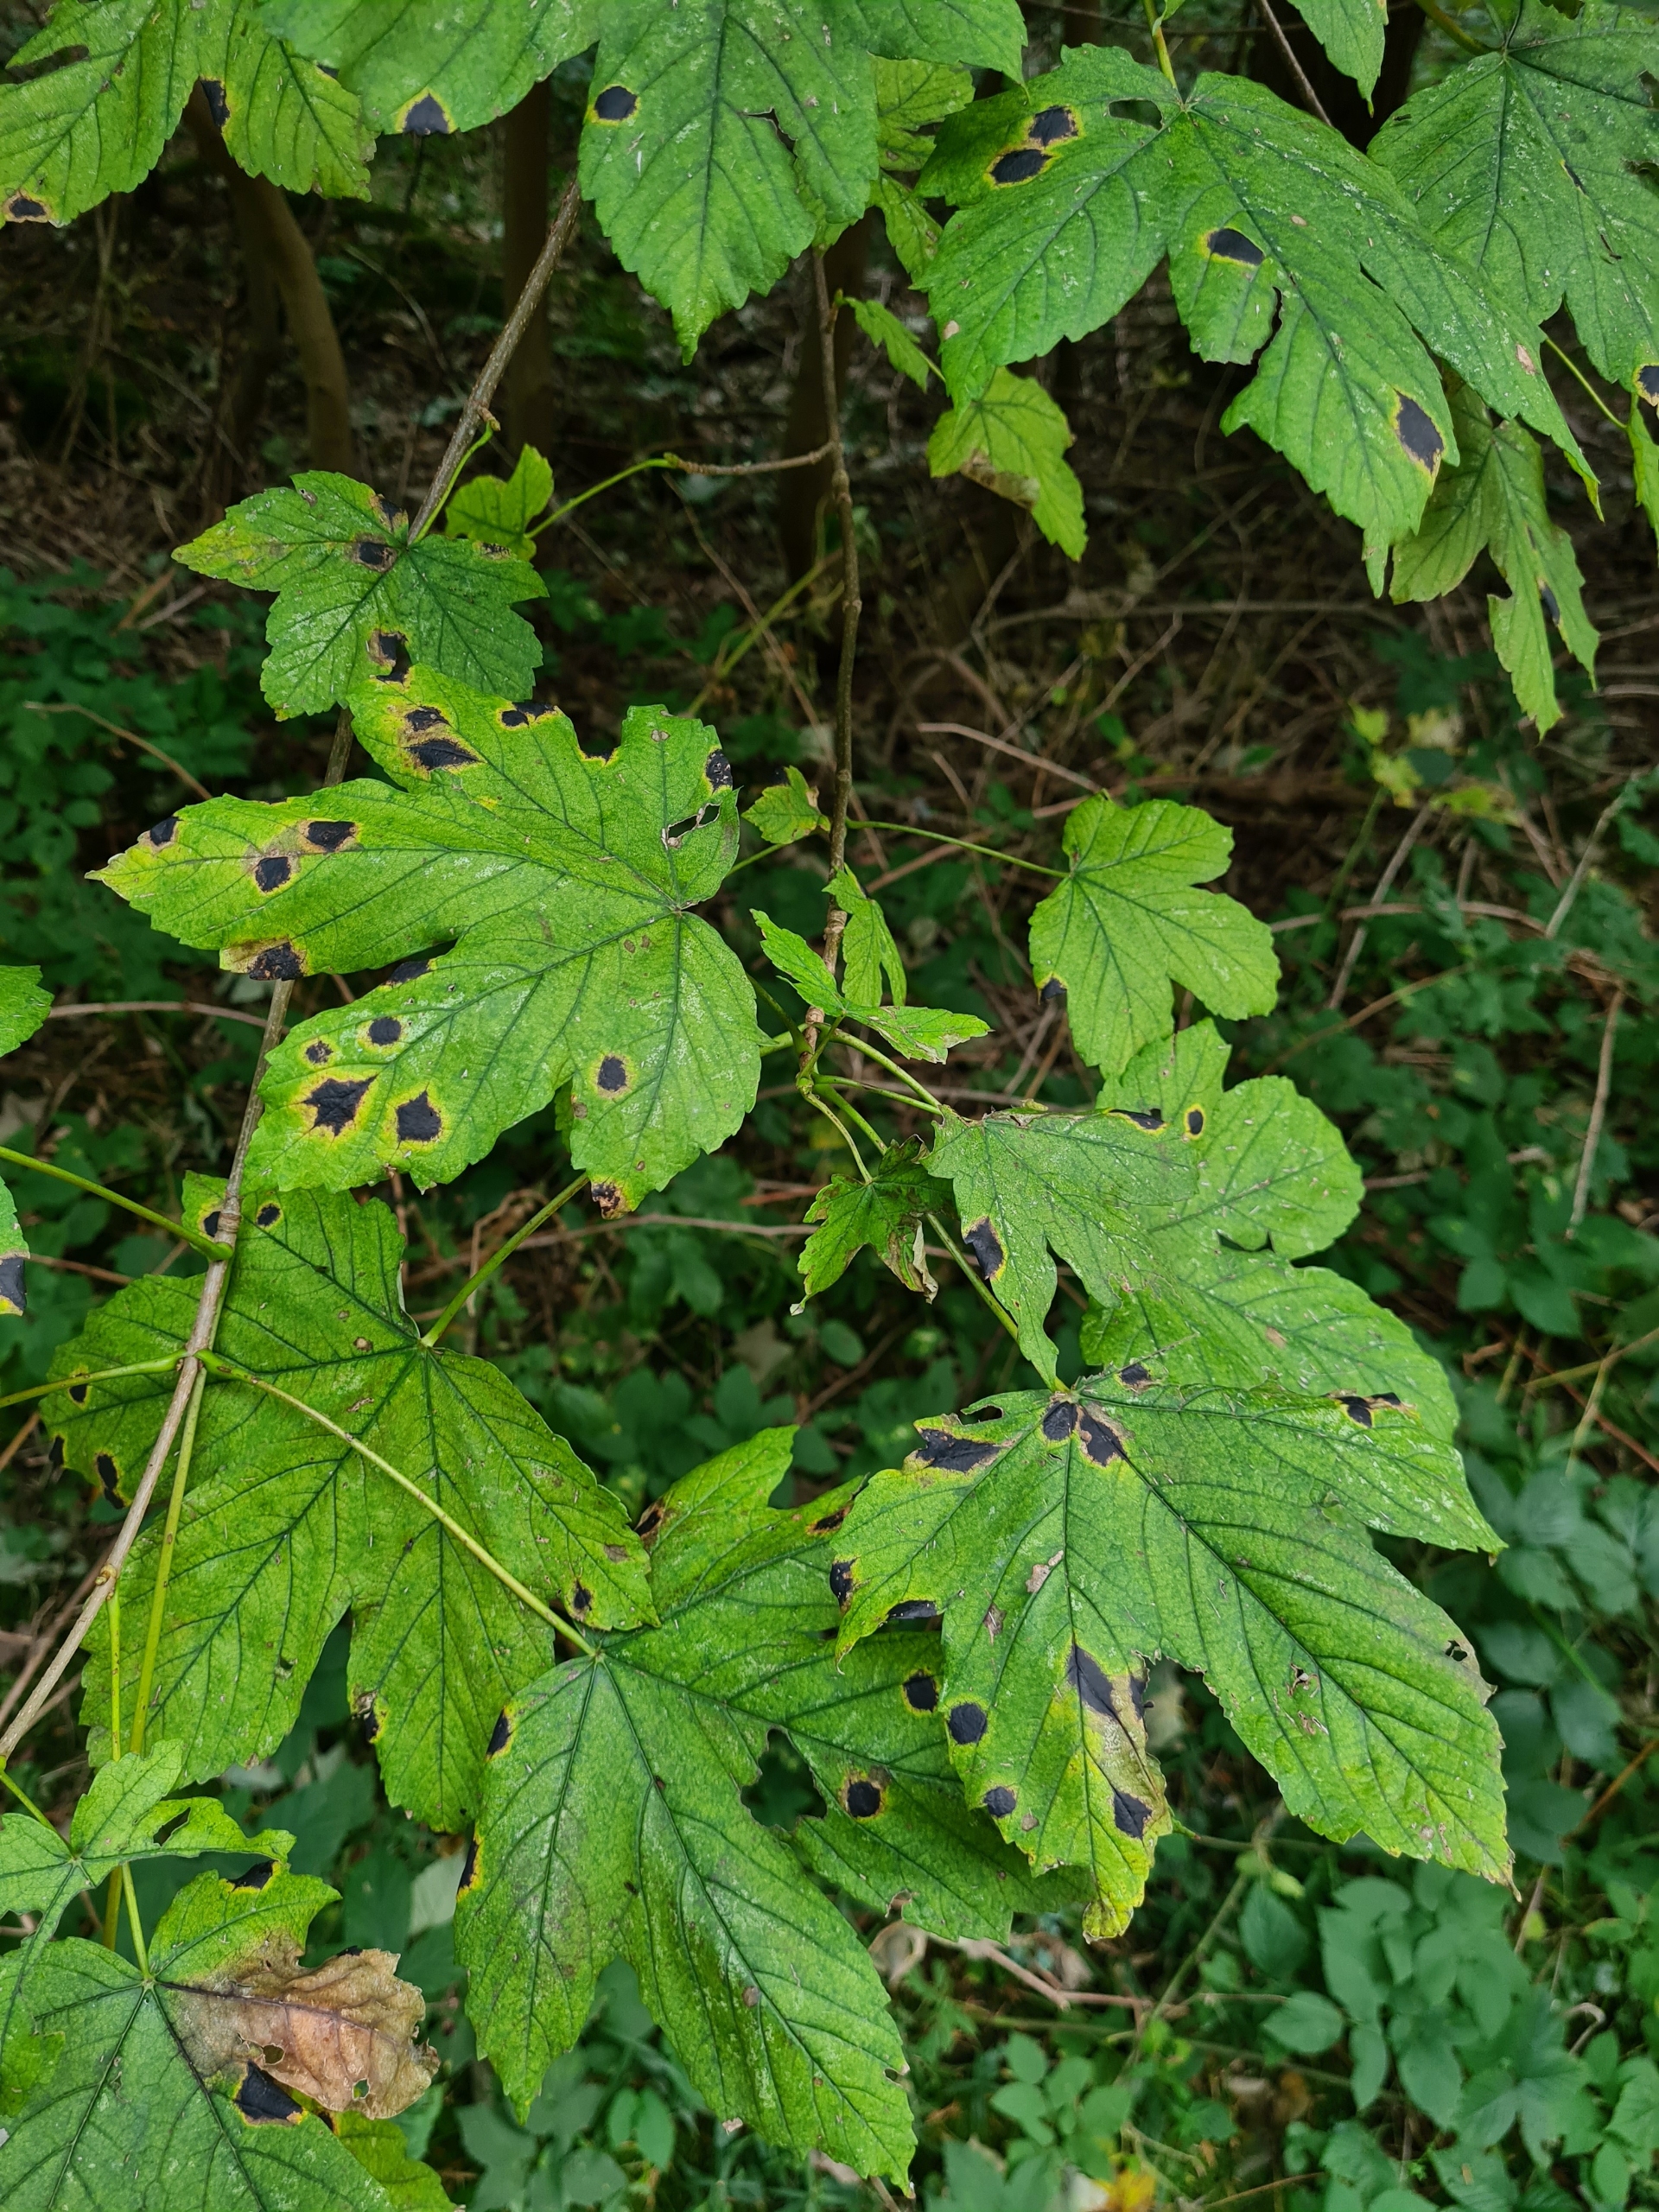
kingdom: Fungi
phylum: Ascomycota
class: Leotiomycetes
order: Rhytismatales
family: Rhytismataceae
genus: Rhytisma
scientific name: Rhytisma acerinum
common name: Ahorn-rynkeplet
